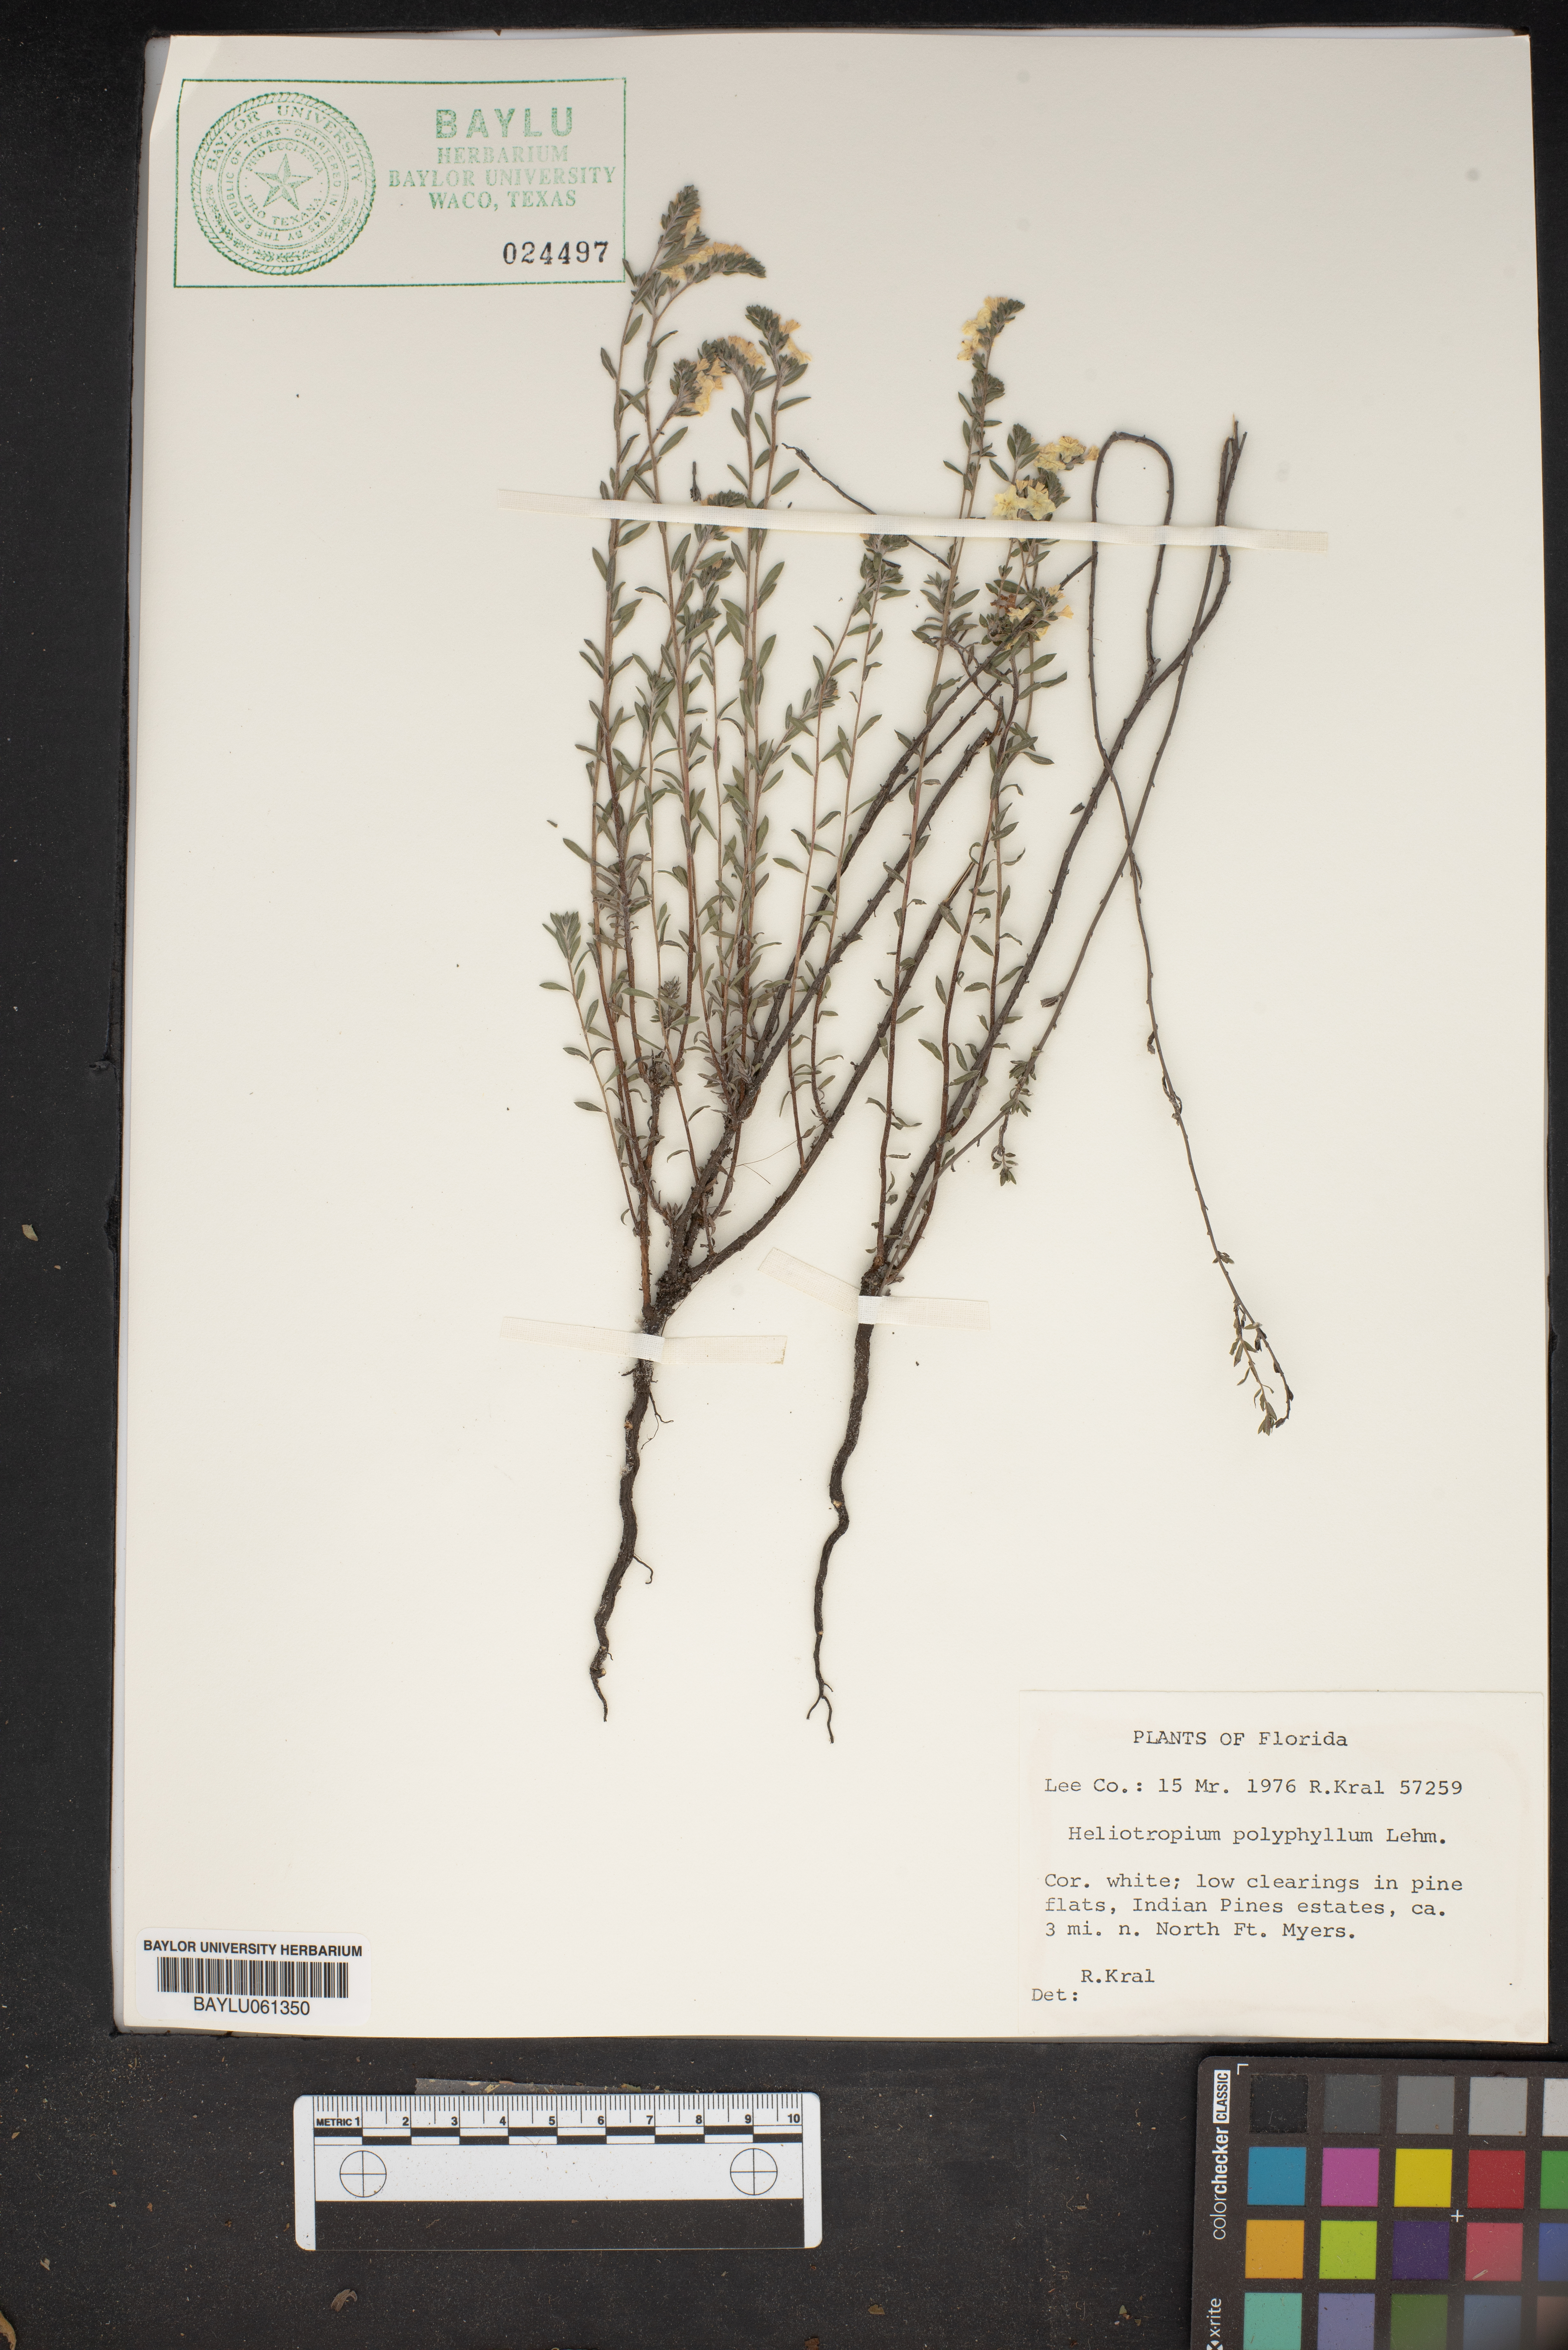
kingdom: Plantae
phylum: Tracheophyta
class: Magnoliopsida
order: Boraginales
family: Heliotropiaceae
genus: Euploca
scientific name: Euploca polyphylla
